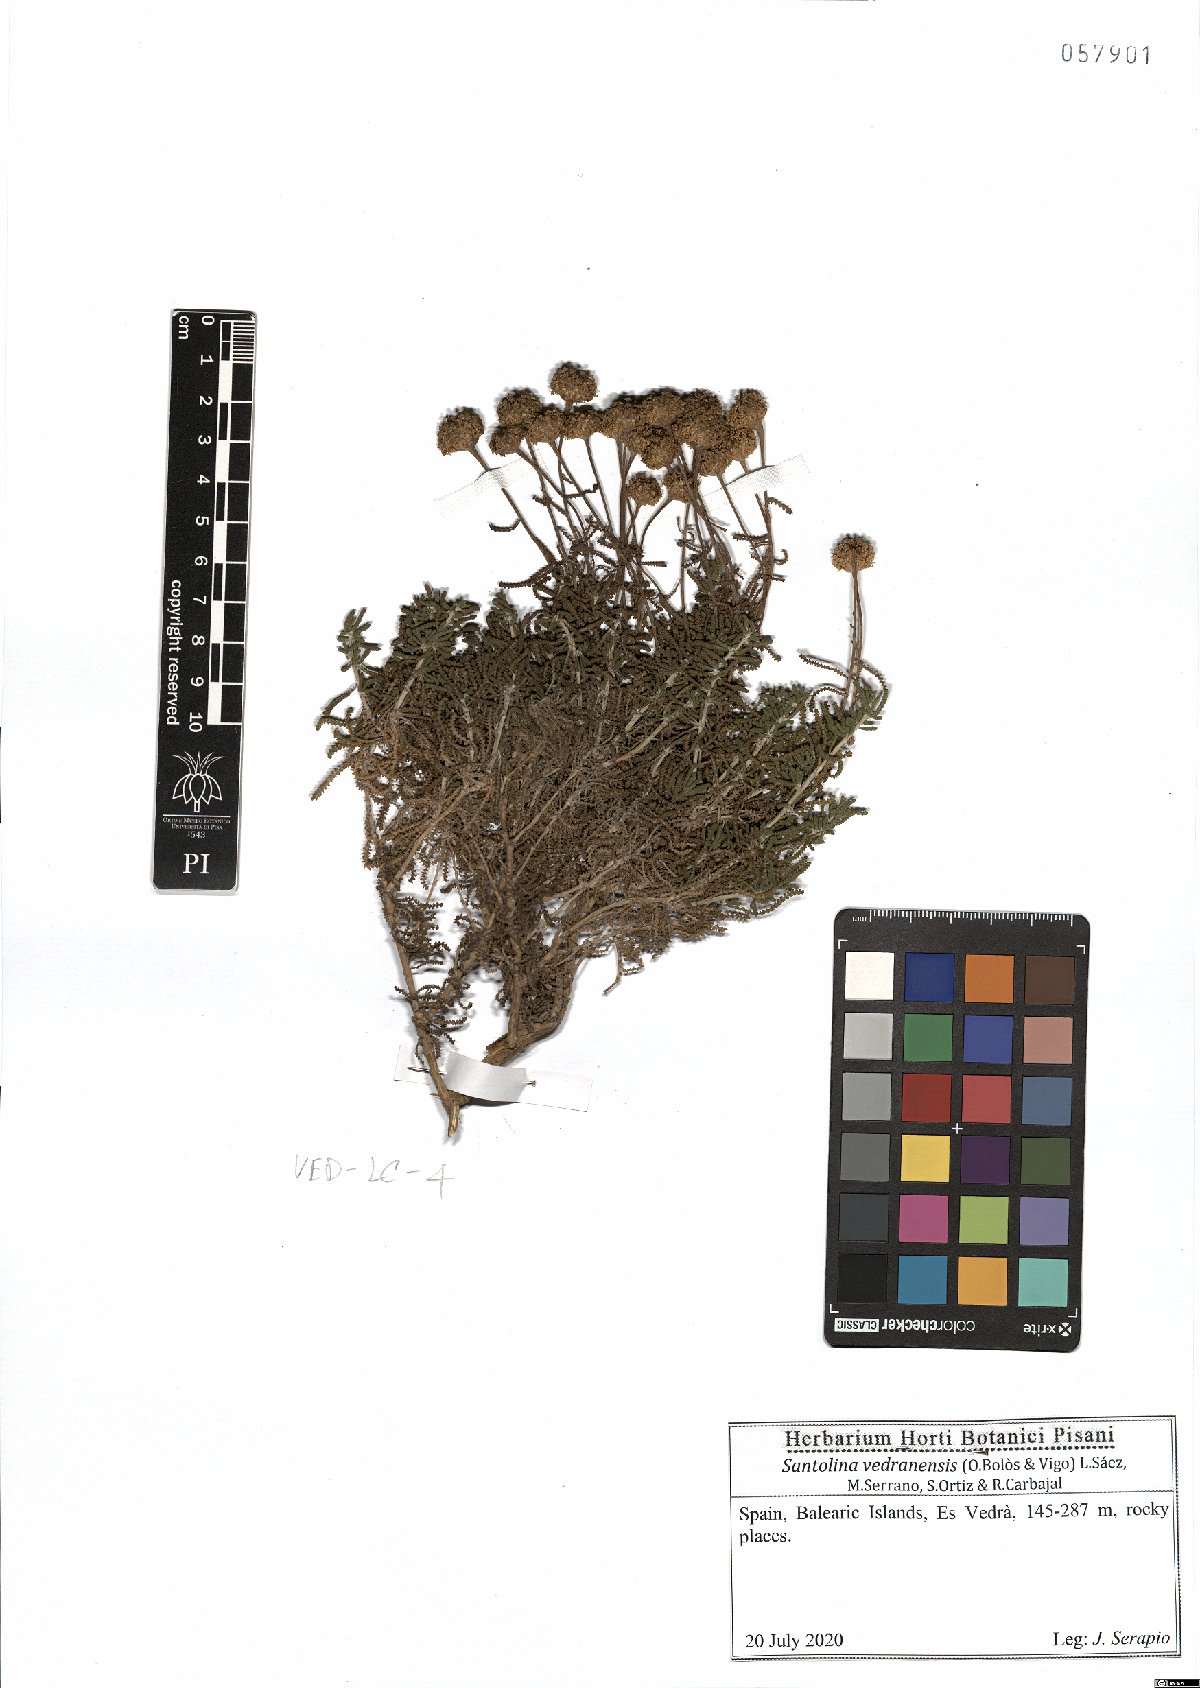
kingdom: Plantae
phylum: Tracheophyta
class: Magnoliopsida
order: Asterales
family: Asteraceae
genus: Santolina
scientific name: Santolina vedranensis
